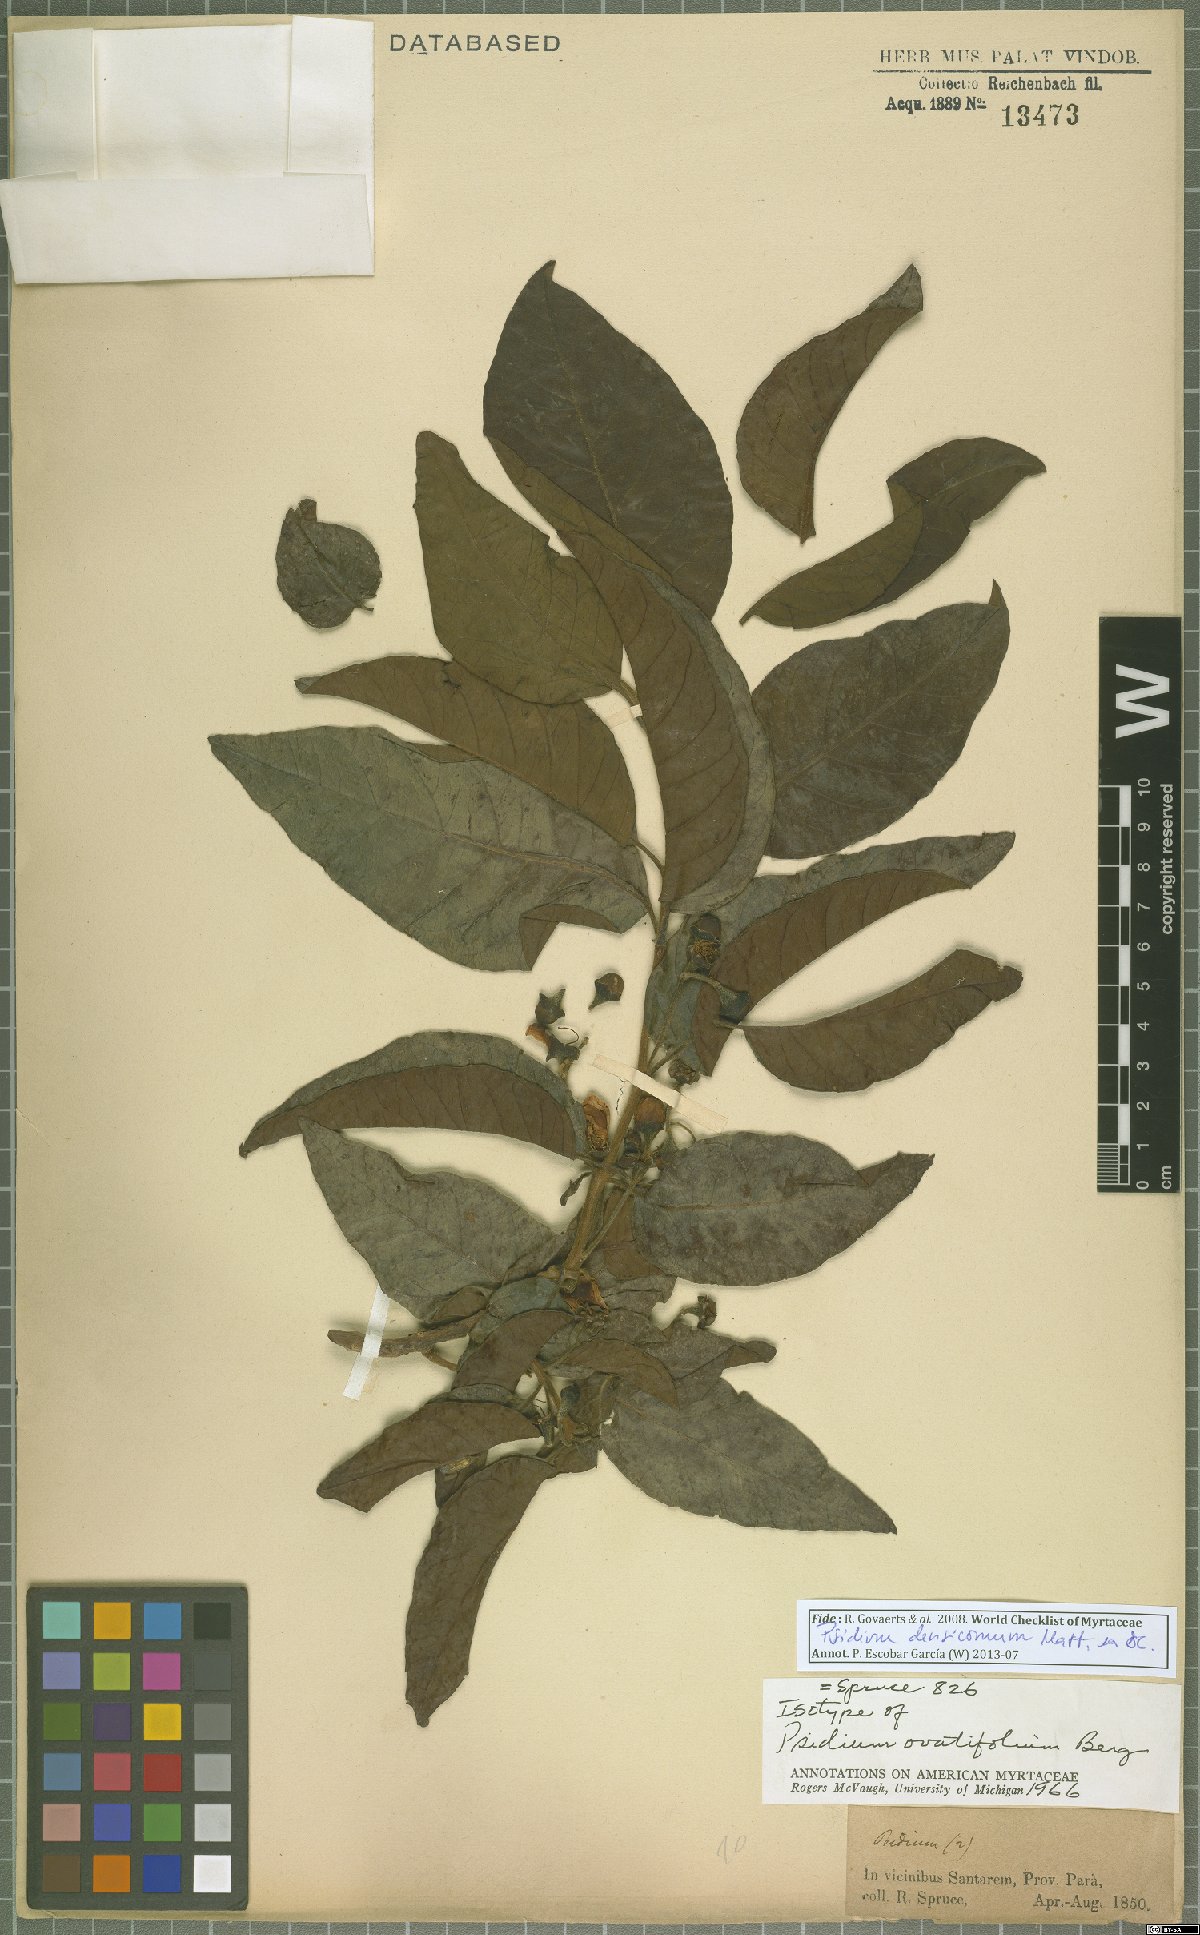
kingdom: Plantae
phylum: Tracheophyta
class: Magnoliopsida
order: Myrtales
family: Myrtaceae
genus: Psidium
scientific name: Psidium densicomum
